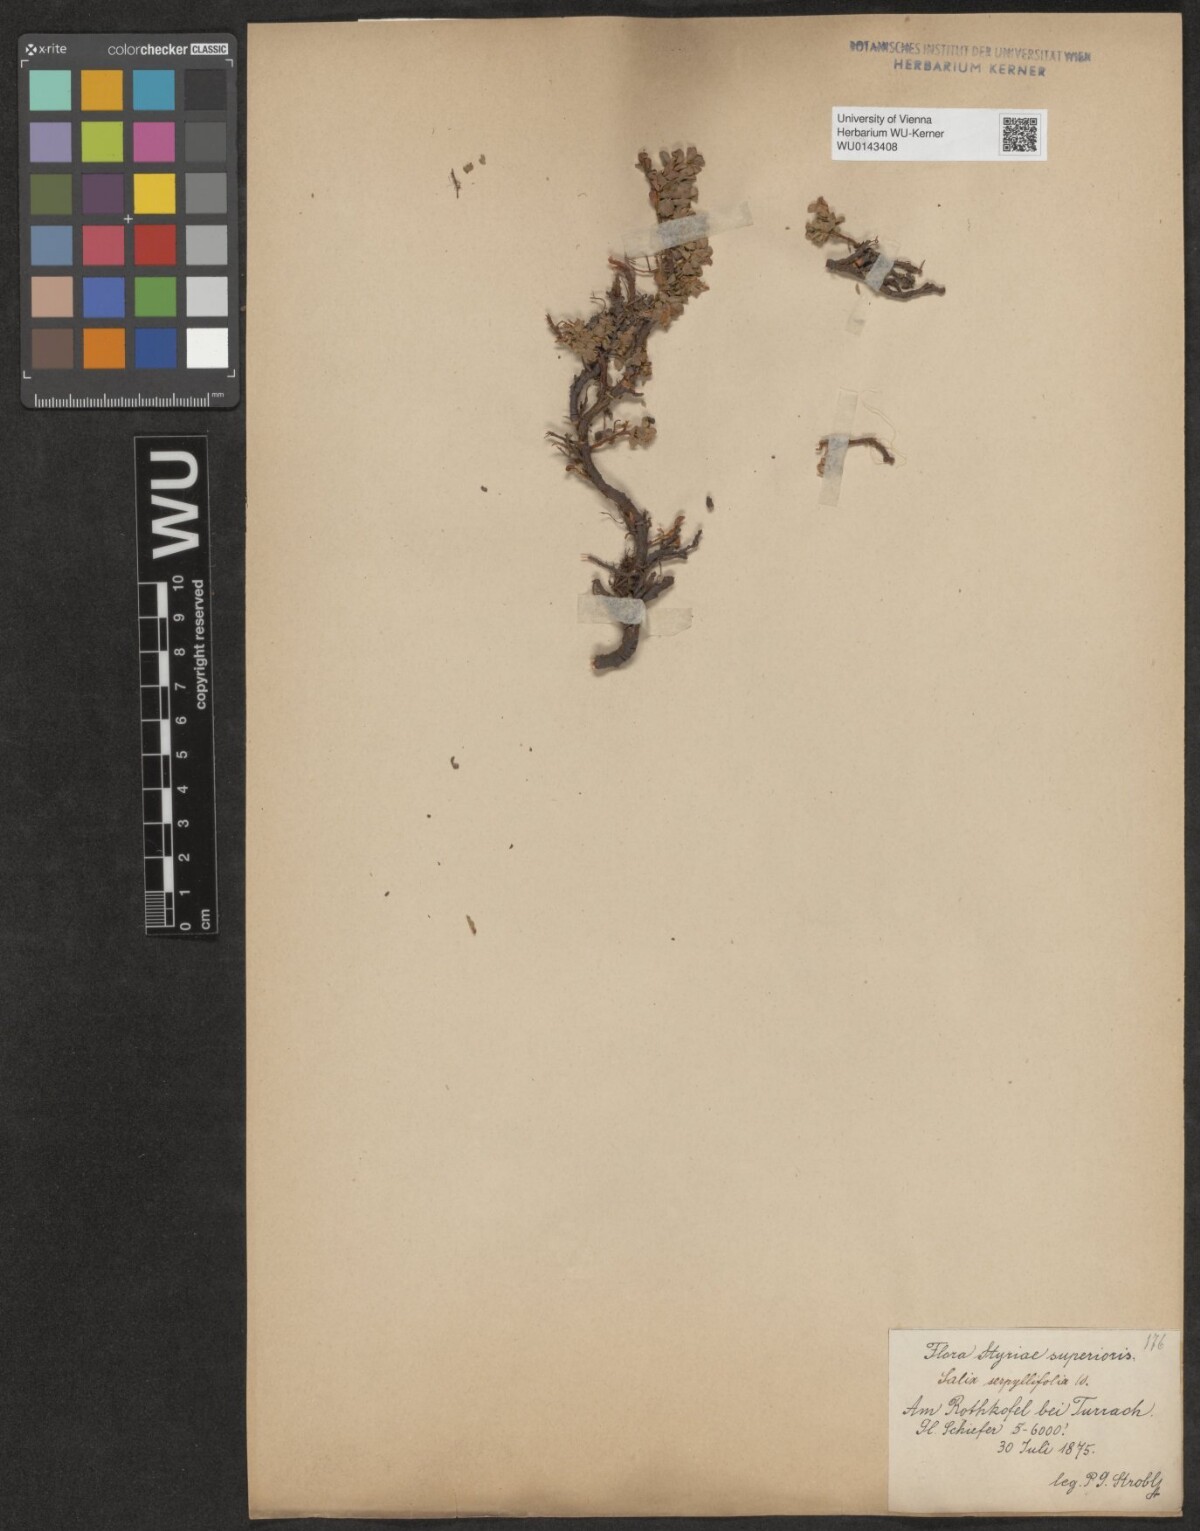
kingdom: Plantae
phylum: Tracheophyta
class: Magnoliopsida
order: Malpighiales
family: Salicaceae
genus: Salix
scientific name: Salix serpillifolia
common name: Thyme-leaf willow
